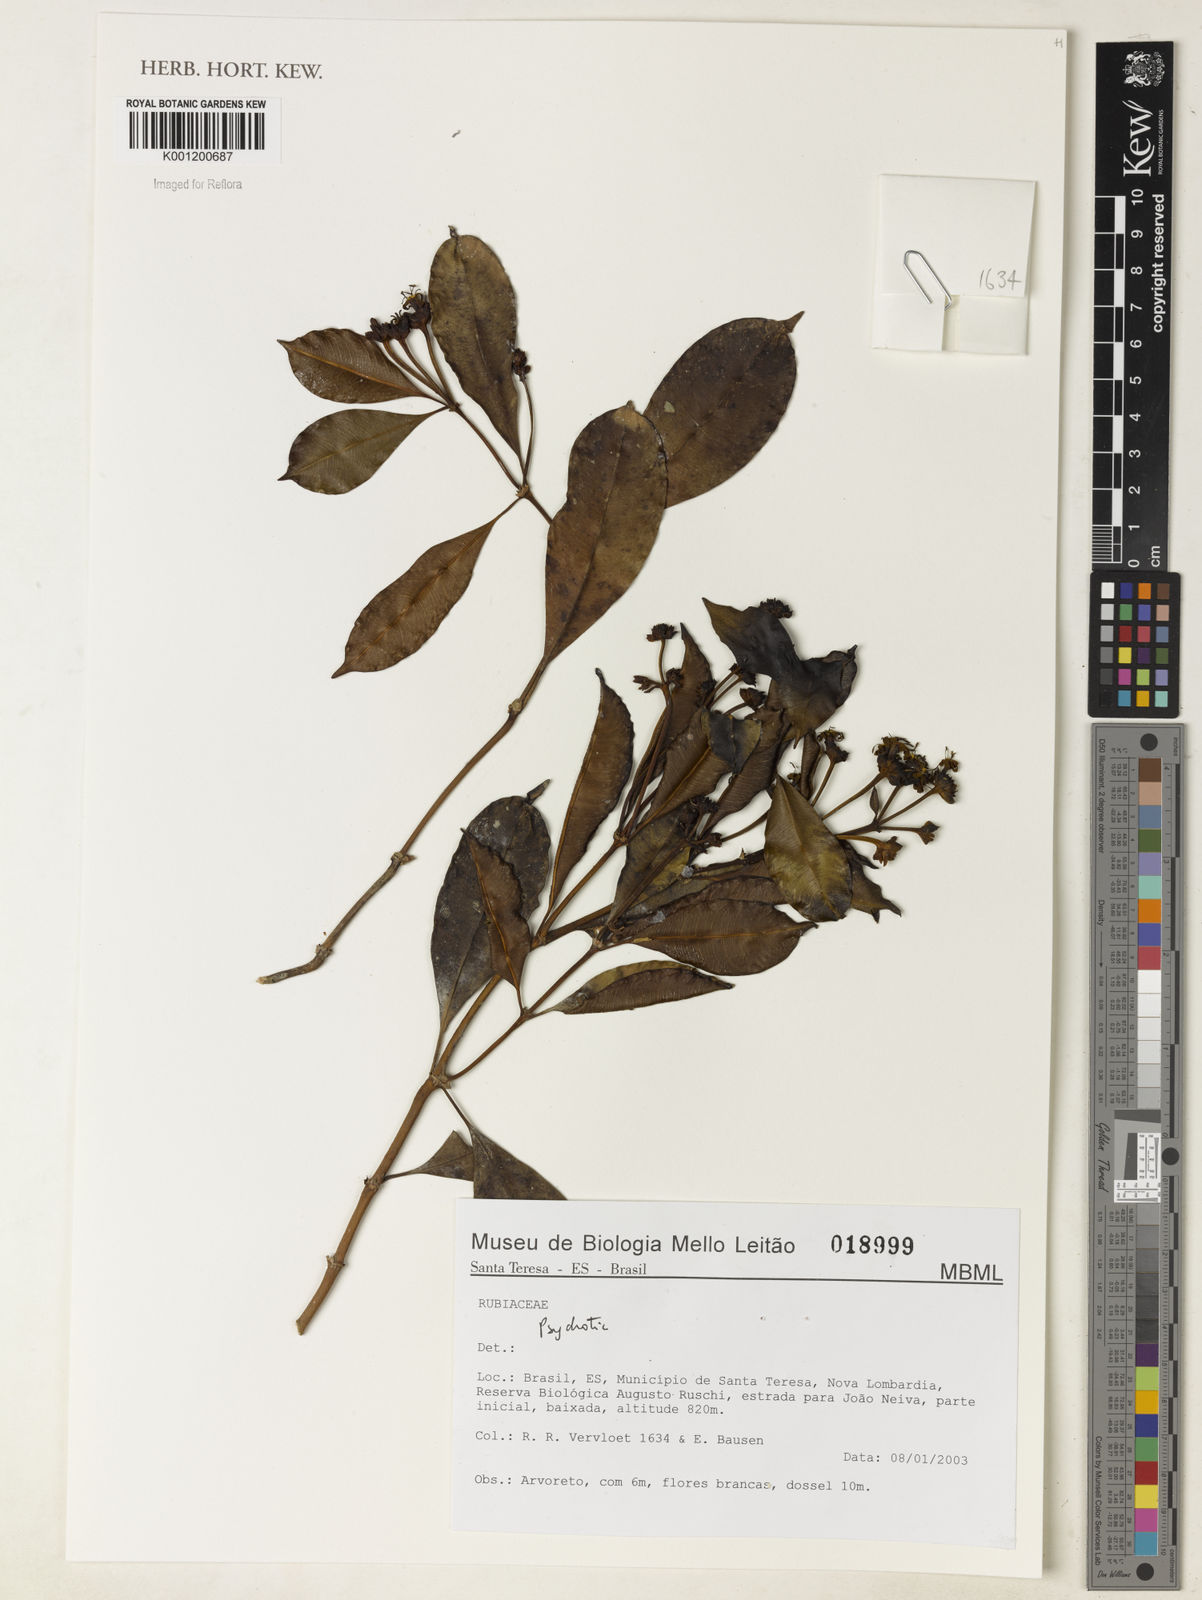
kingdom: Plantae
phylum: Tracheophyta
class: Magnoliopsida
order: Gentianales
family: Rubiaceae
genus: Psychotria
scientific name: Psychotria
